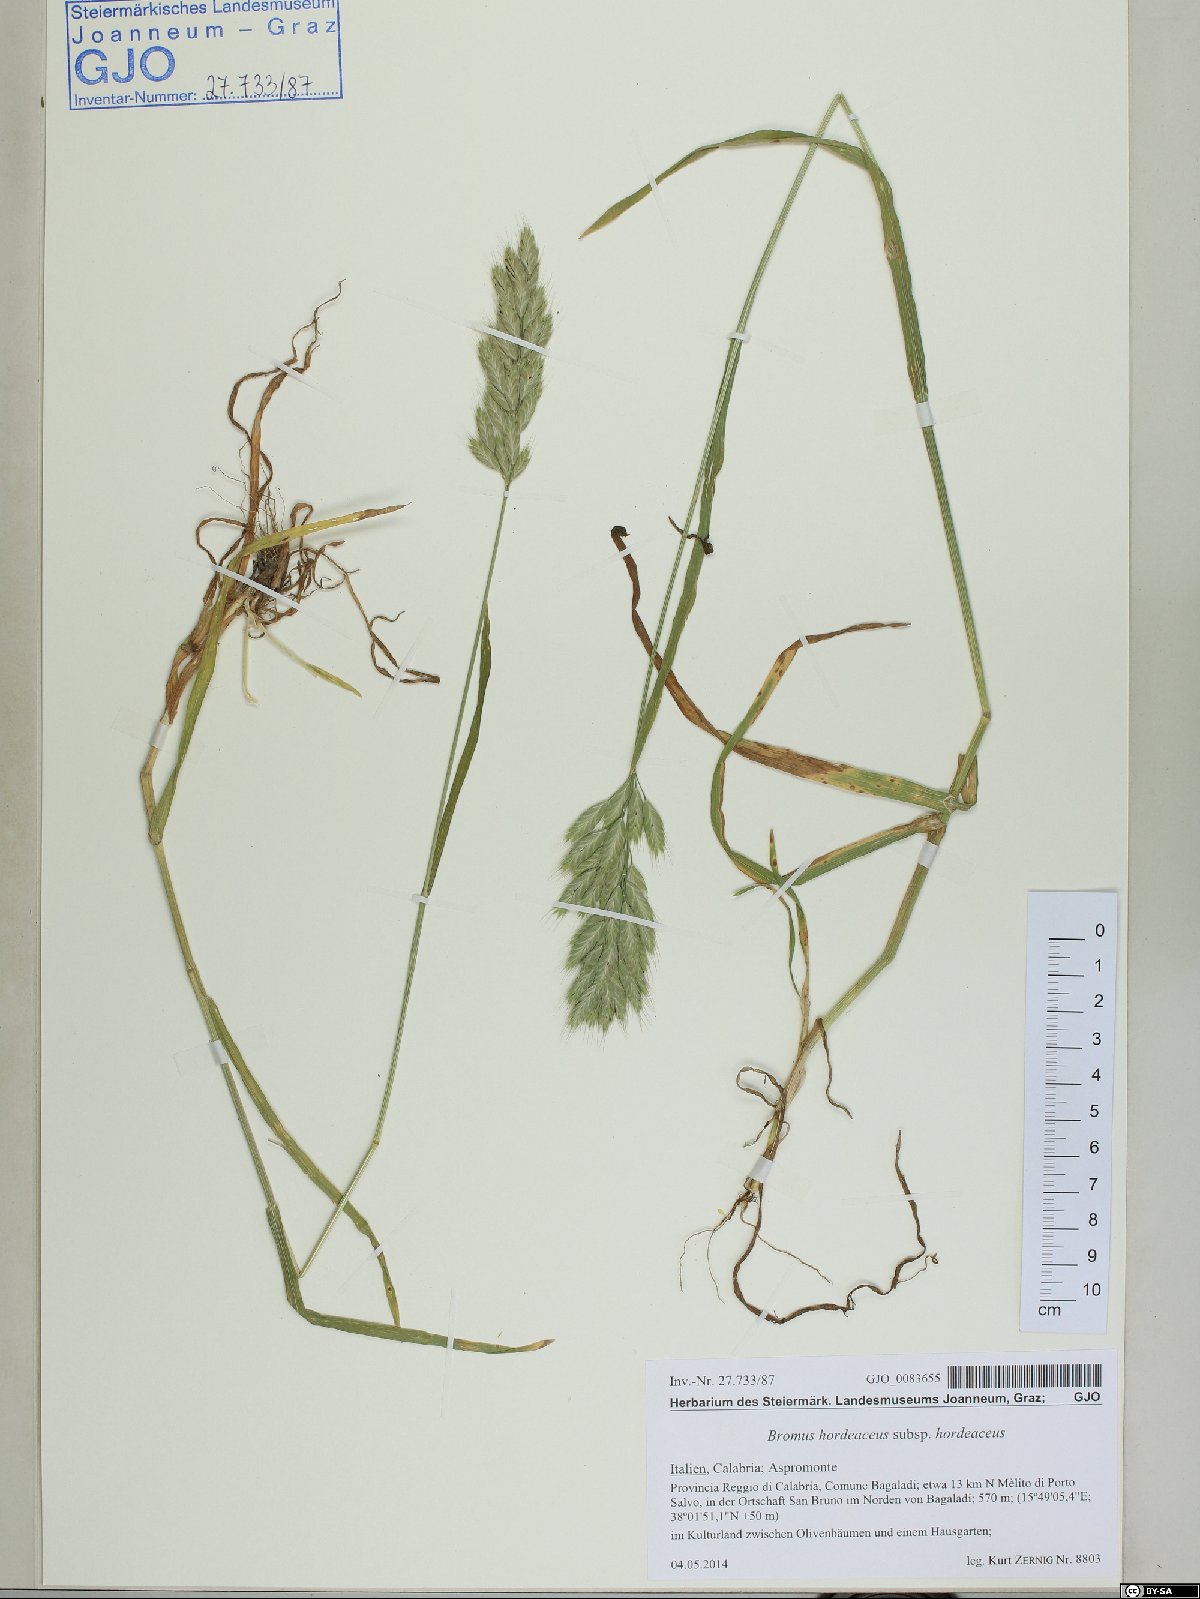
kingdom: Plantae
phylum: Tracheophyta
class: Liliopsida
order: Poales
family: Poaceae
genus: Bromus
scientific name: Bromus hordeaceus
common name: Soft brome
